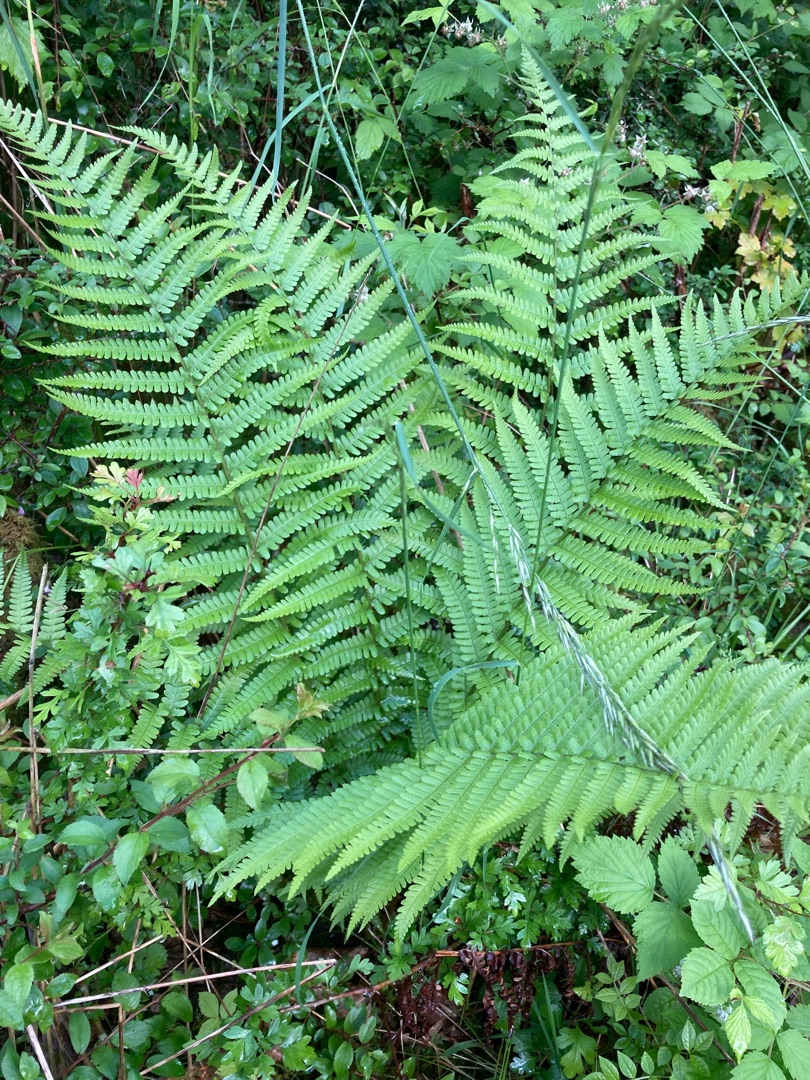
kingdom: Plantae
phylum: Tracheophyta
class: Polypodiopsida
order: Polypodiales
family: Dryopteridaceae
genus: Dryopteris
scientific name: Dryopteris filix-mas
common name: Almindelig mangeløv
